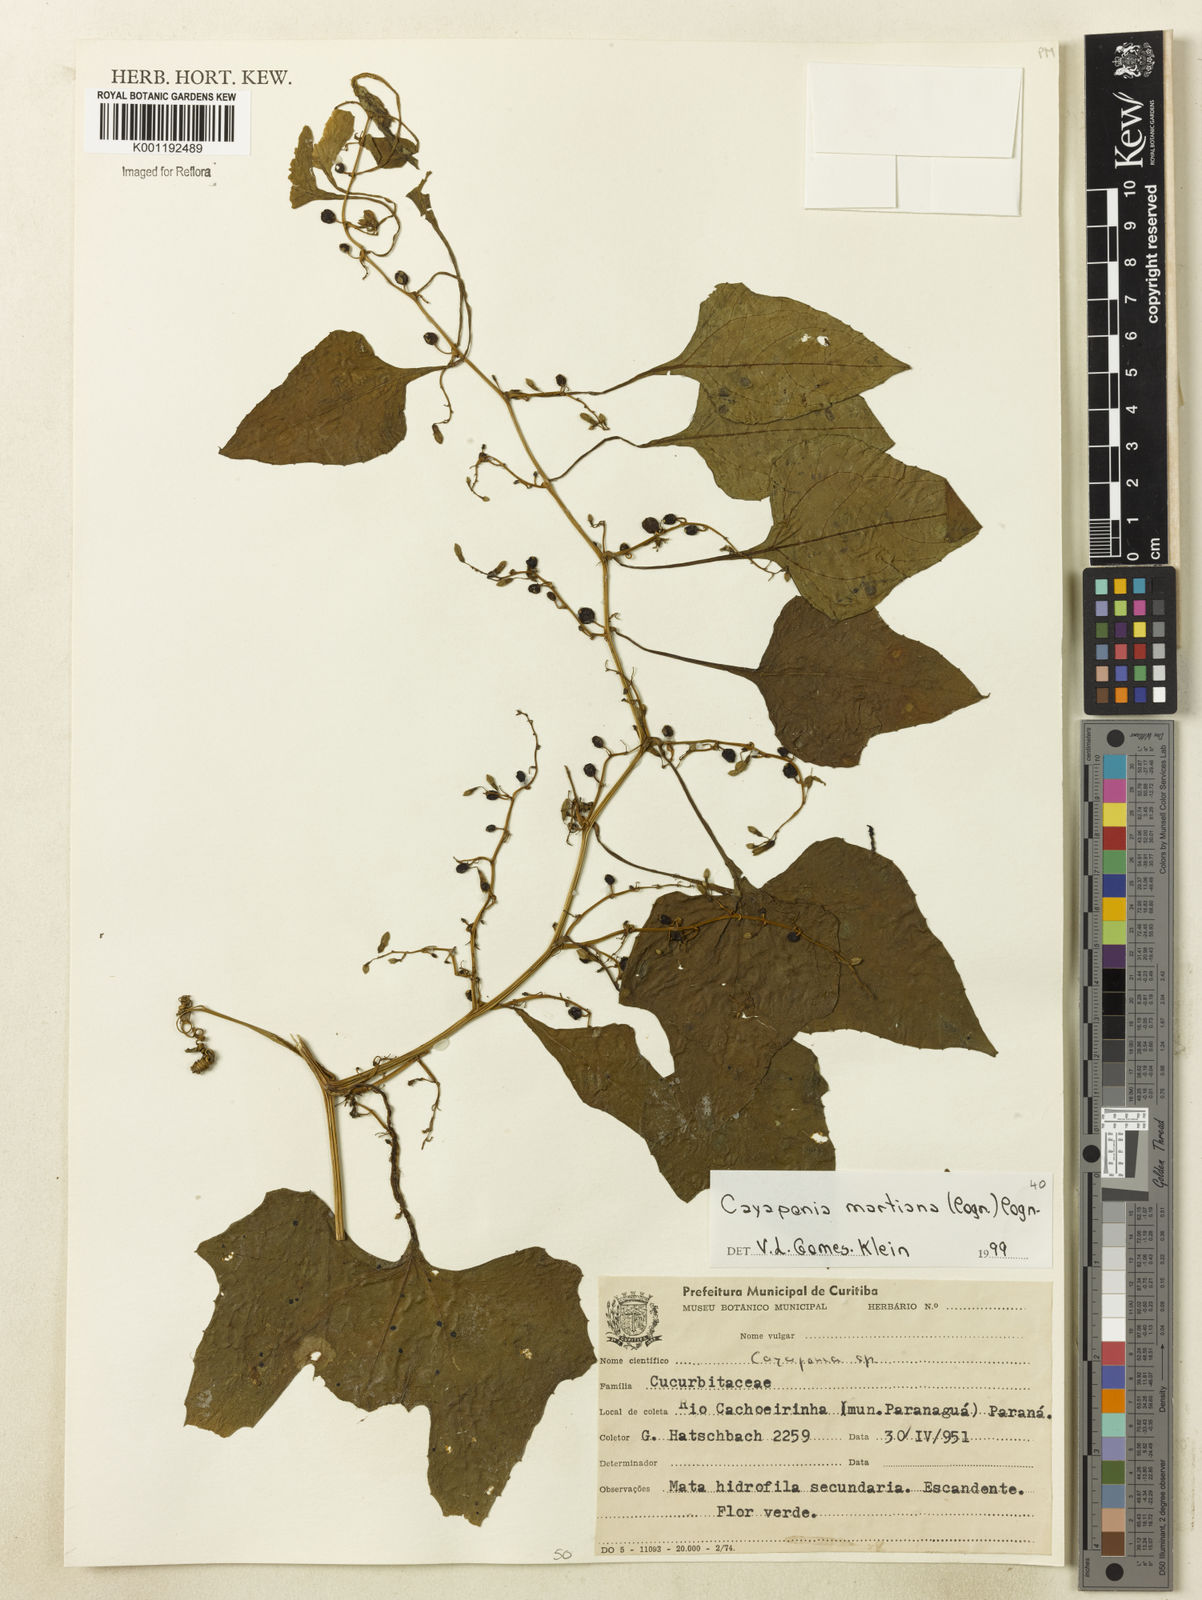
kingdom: Plantae
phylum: Tracheophyta
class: Magnoliopsida
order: Cucurbitales
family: Cucurbitaceae
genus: Cayaponia
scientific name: Cayaponia martiana
